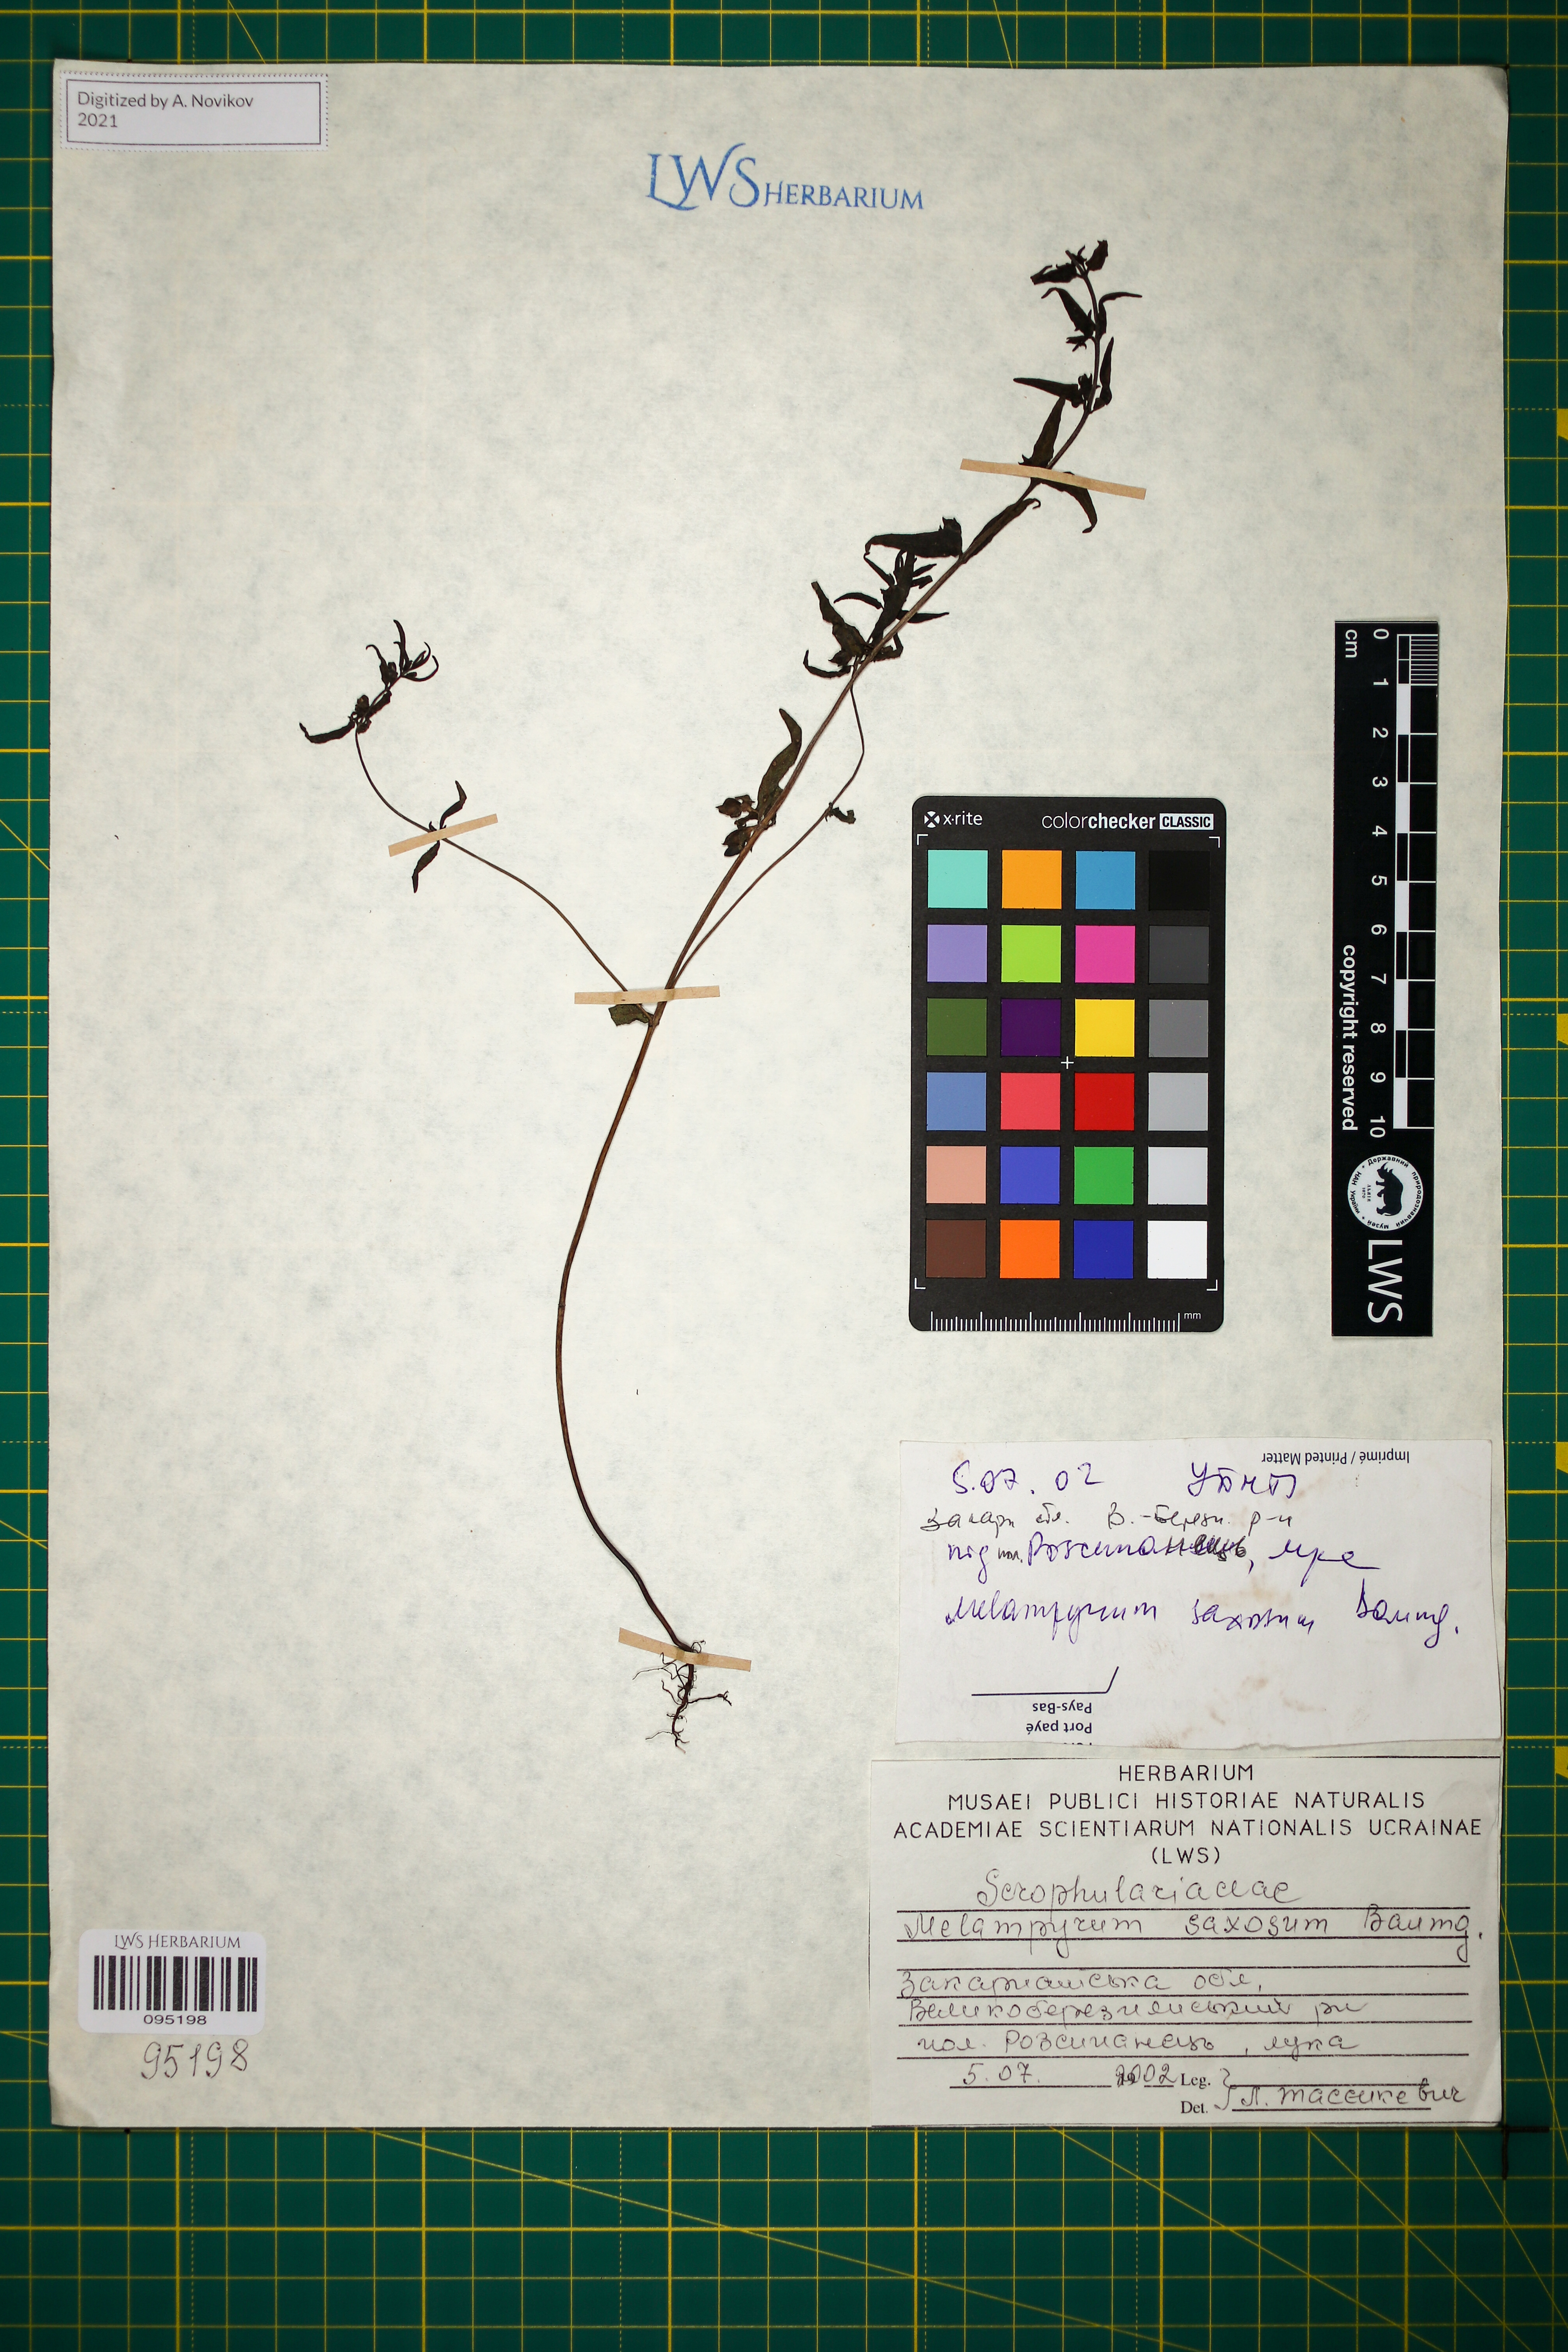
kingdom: Plantae
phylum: Tracheophyta
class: Magnoliopsida
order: Lamiales
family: Orobanchaceae
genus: Melampyrum
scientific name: Melampyrum saxosum
